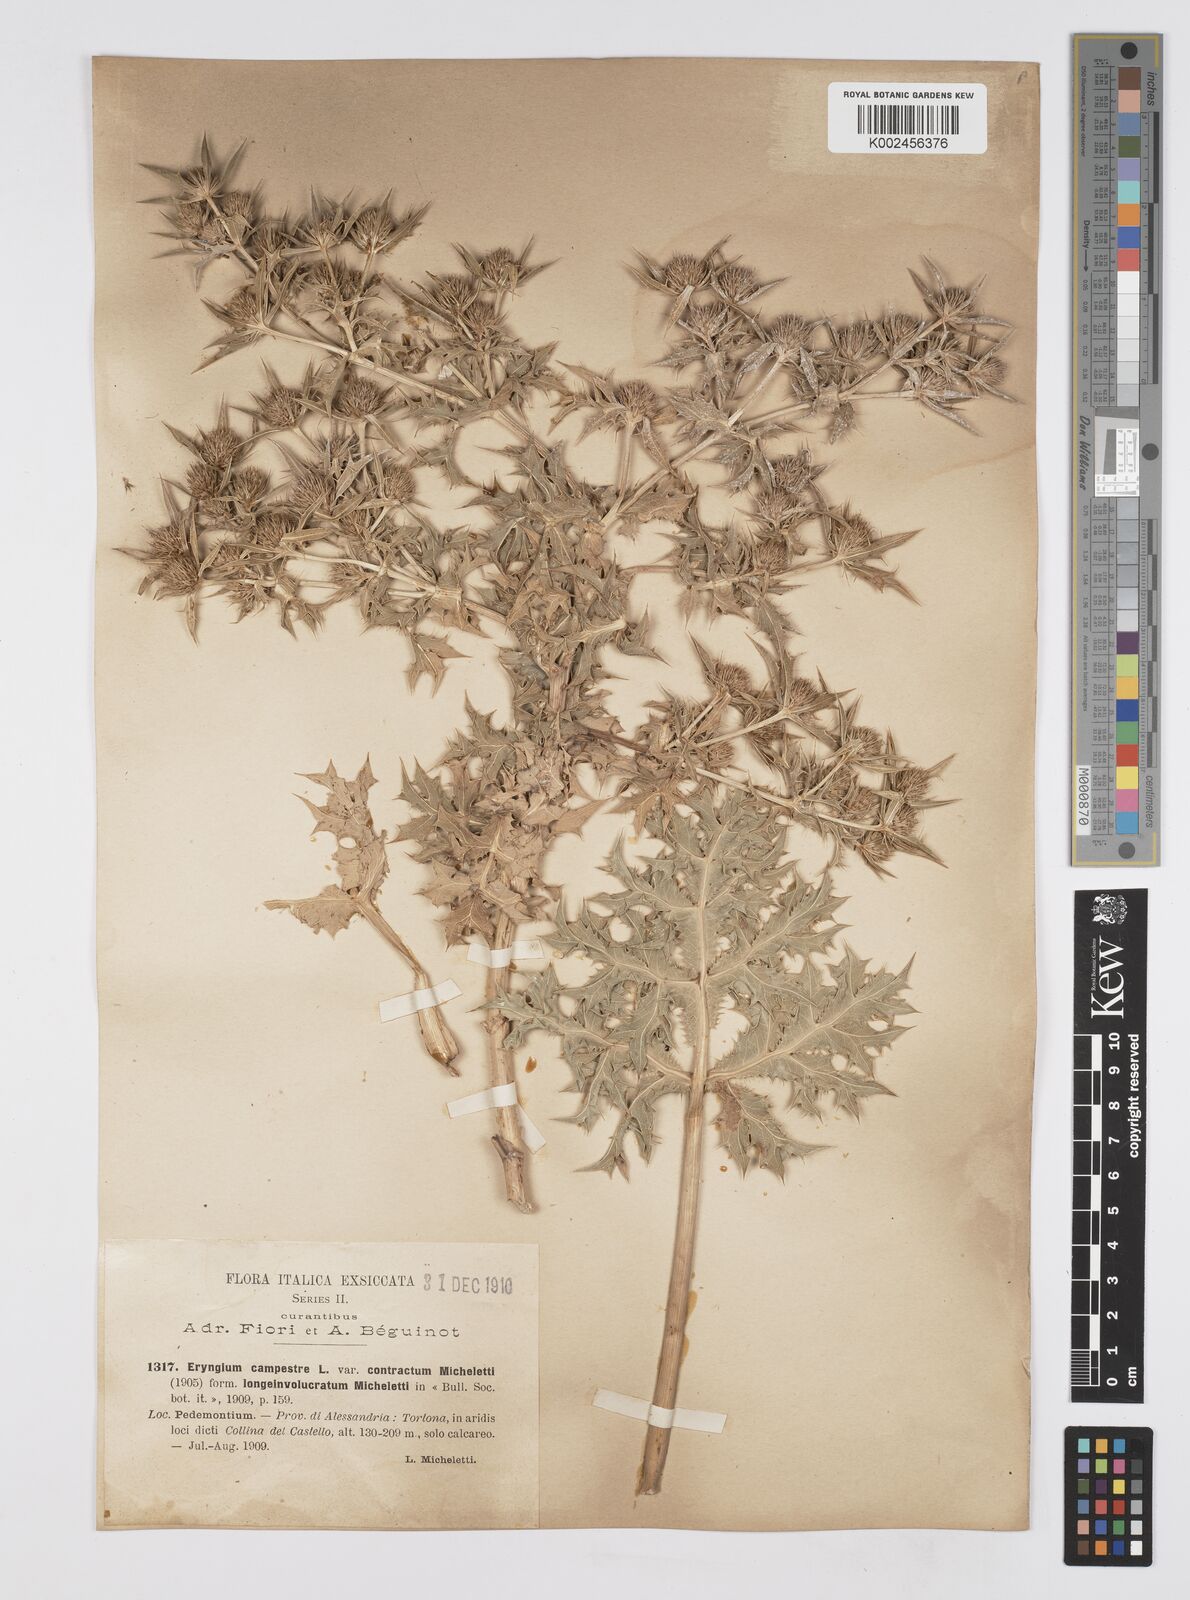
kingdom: Plantae
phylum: Tracheophyta
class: Magnoliopsida
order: Apiales
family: Apiaceae
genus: Eryngium
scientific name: Eryngium campestre
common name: Field eryngo
